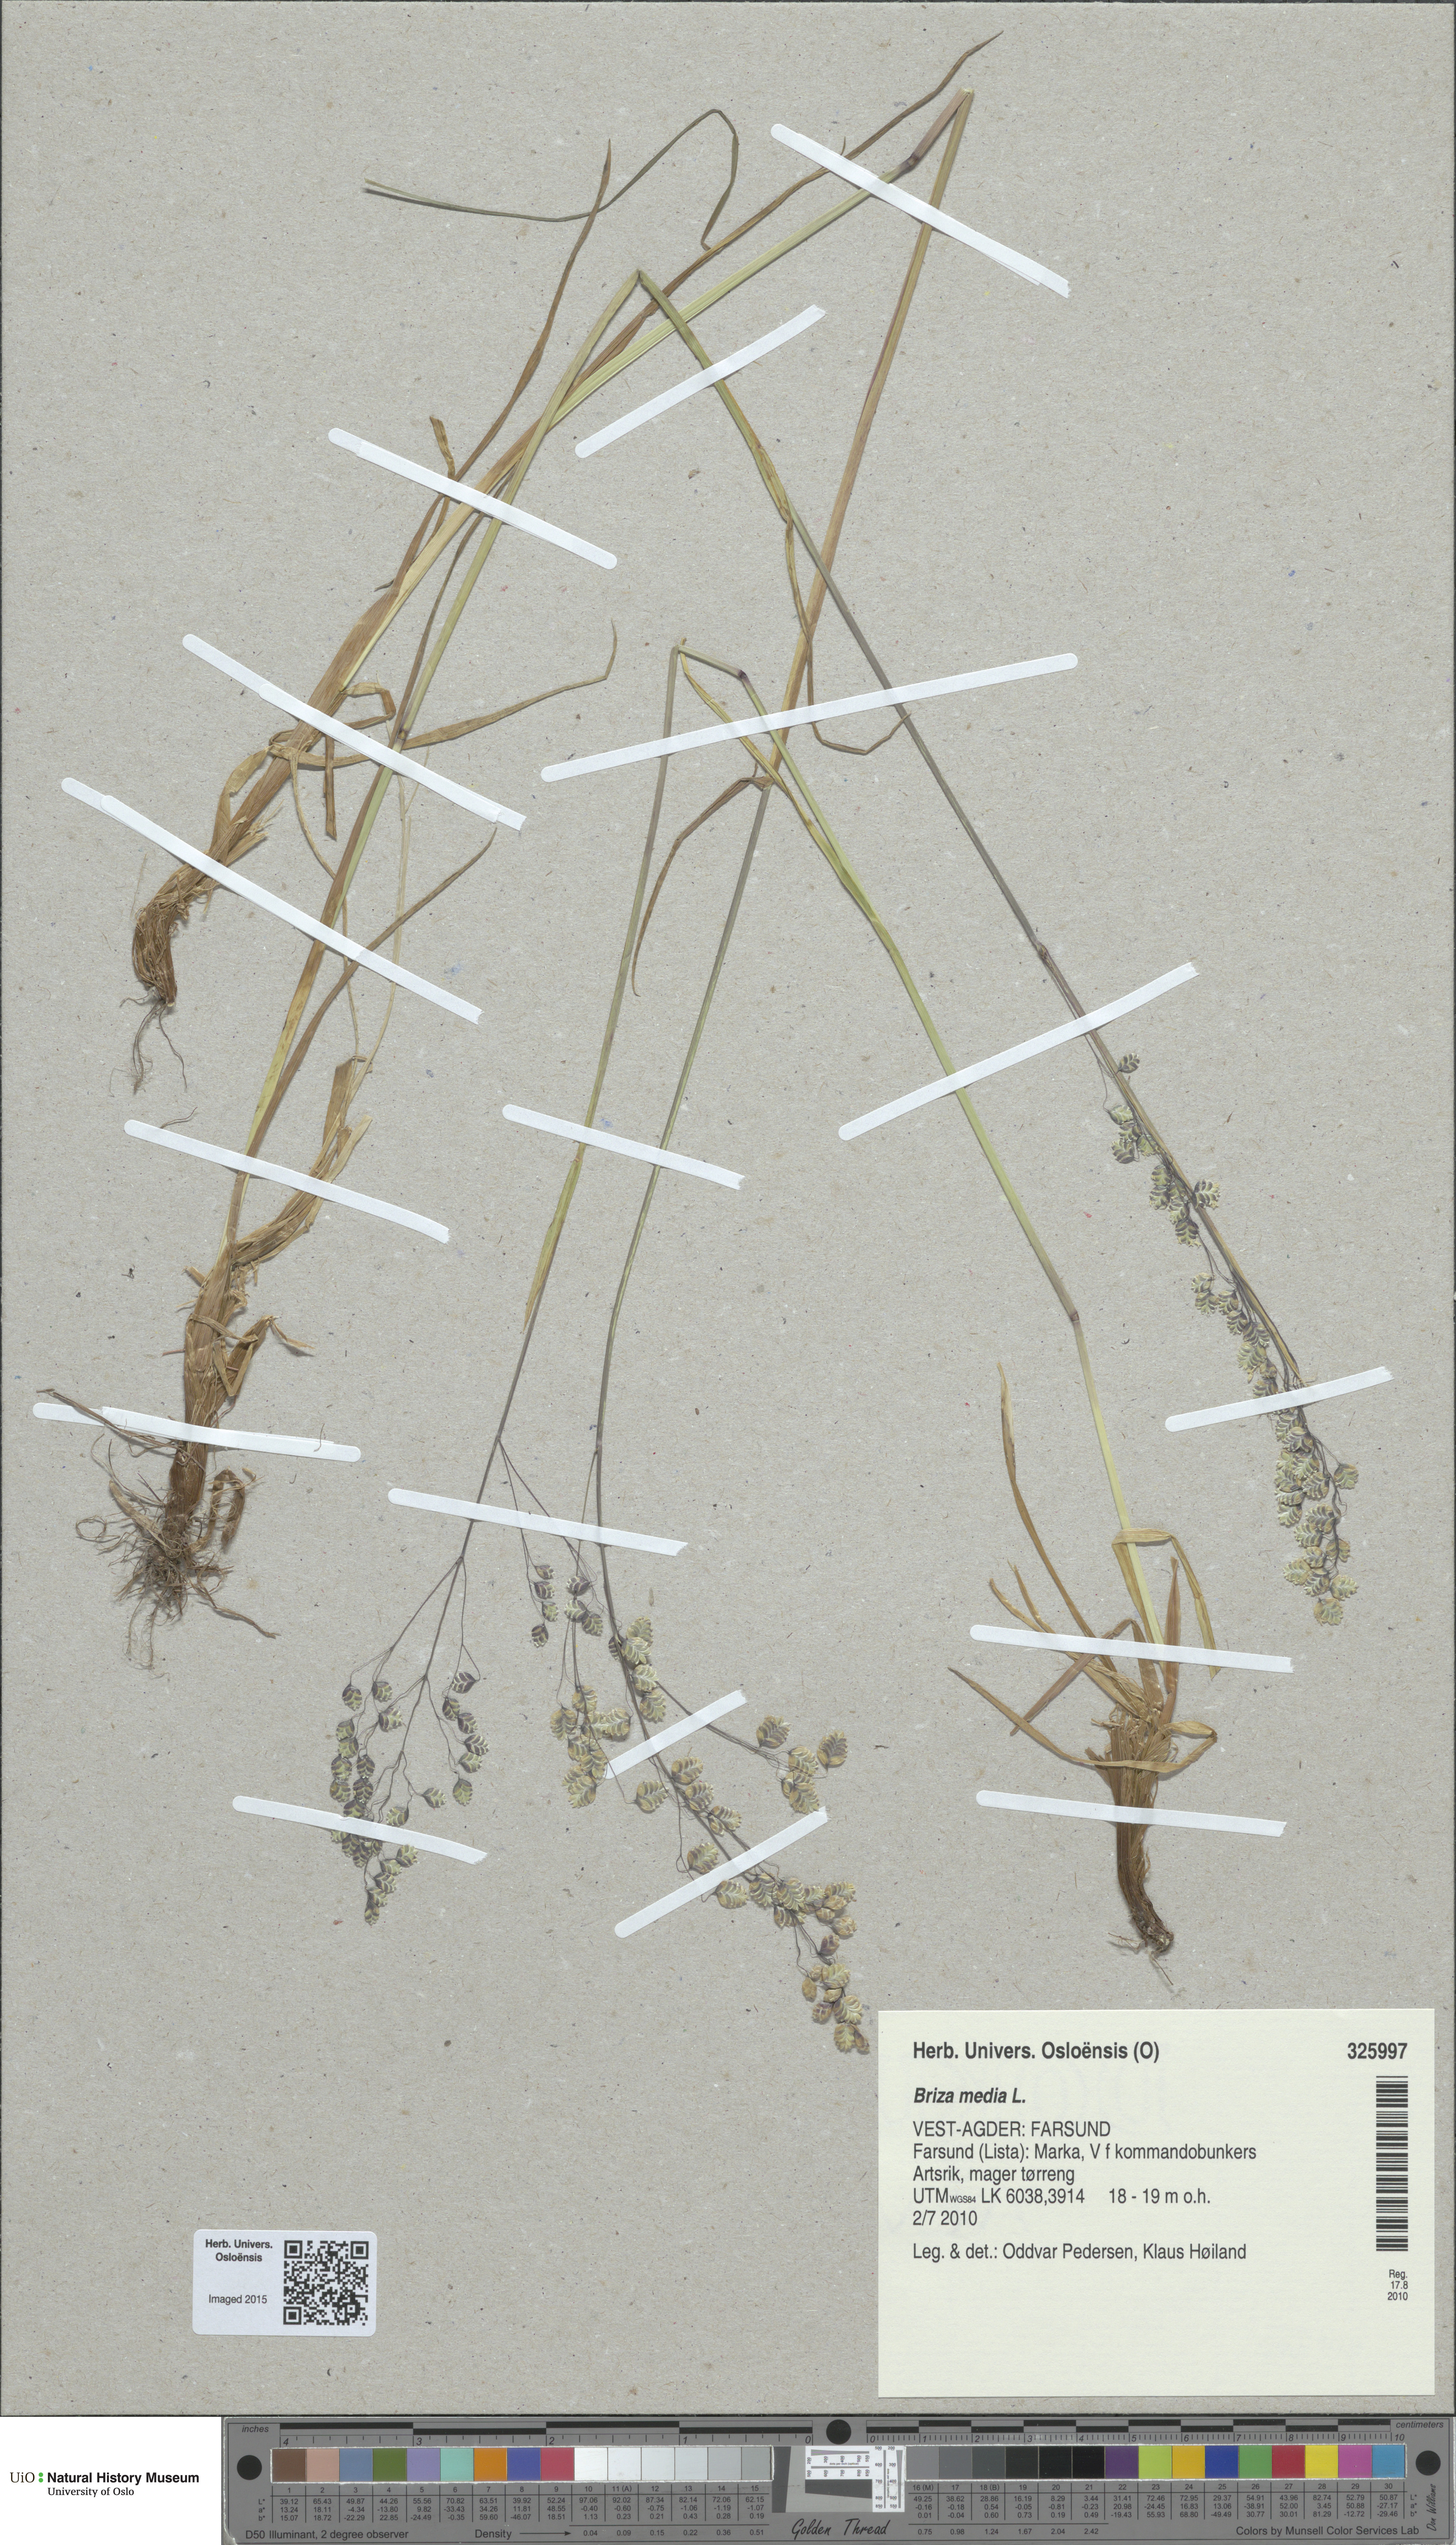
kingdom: Plantae
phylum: Tracheophyta
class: Liliopsida
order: Poales
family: Poaceae
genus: Briza
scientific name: Briza media
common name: Quaking grass
